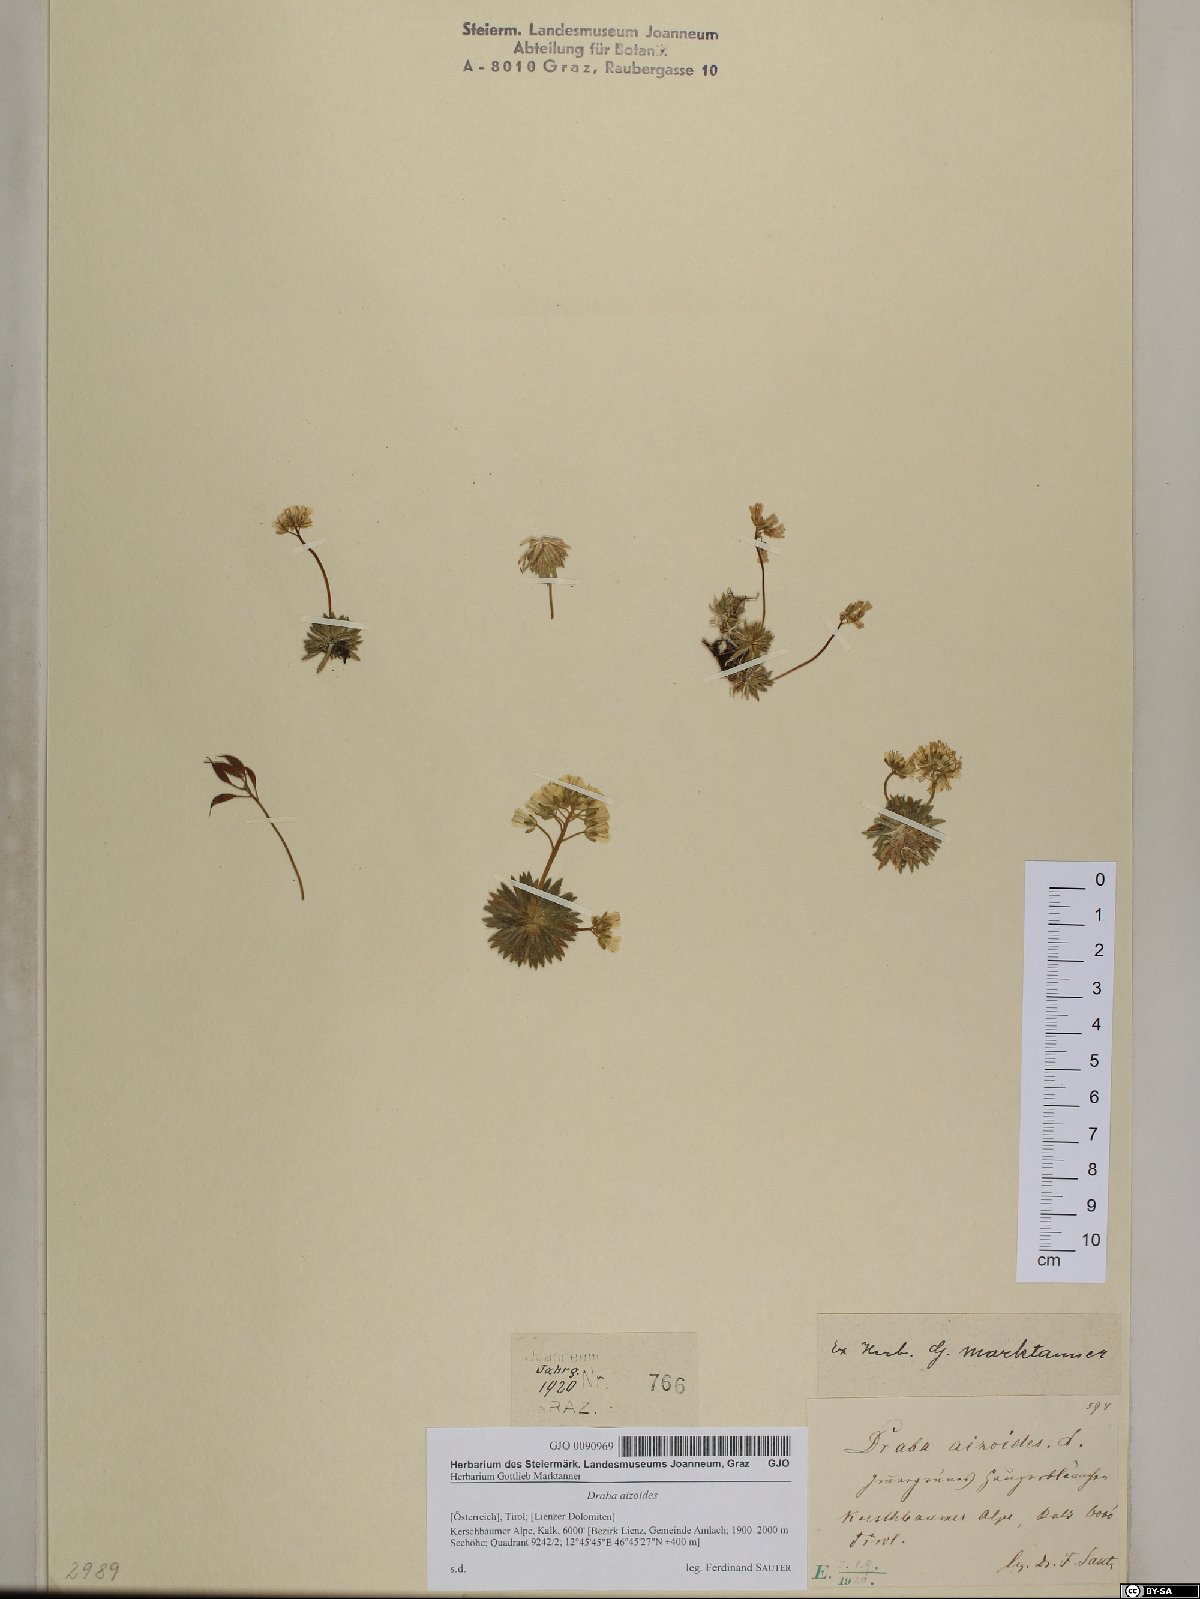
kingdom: Plantae
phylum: Tracheophyta
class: Magnoliopsida
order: Brassicales
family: Brassicaceae
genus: Draba
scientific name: Draba aizoides
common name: Yellow whitlowgrass
